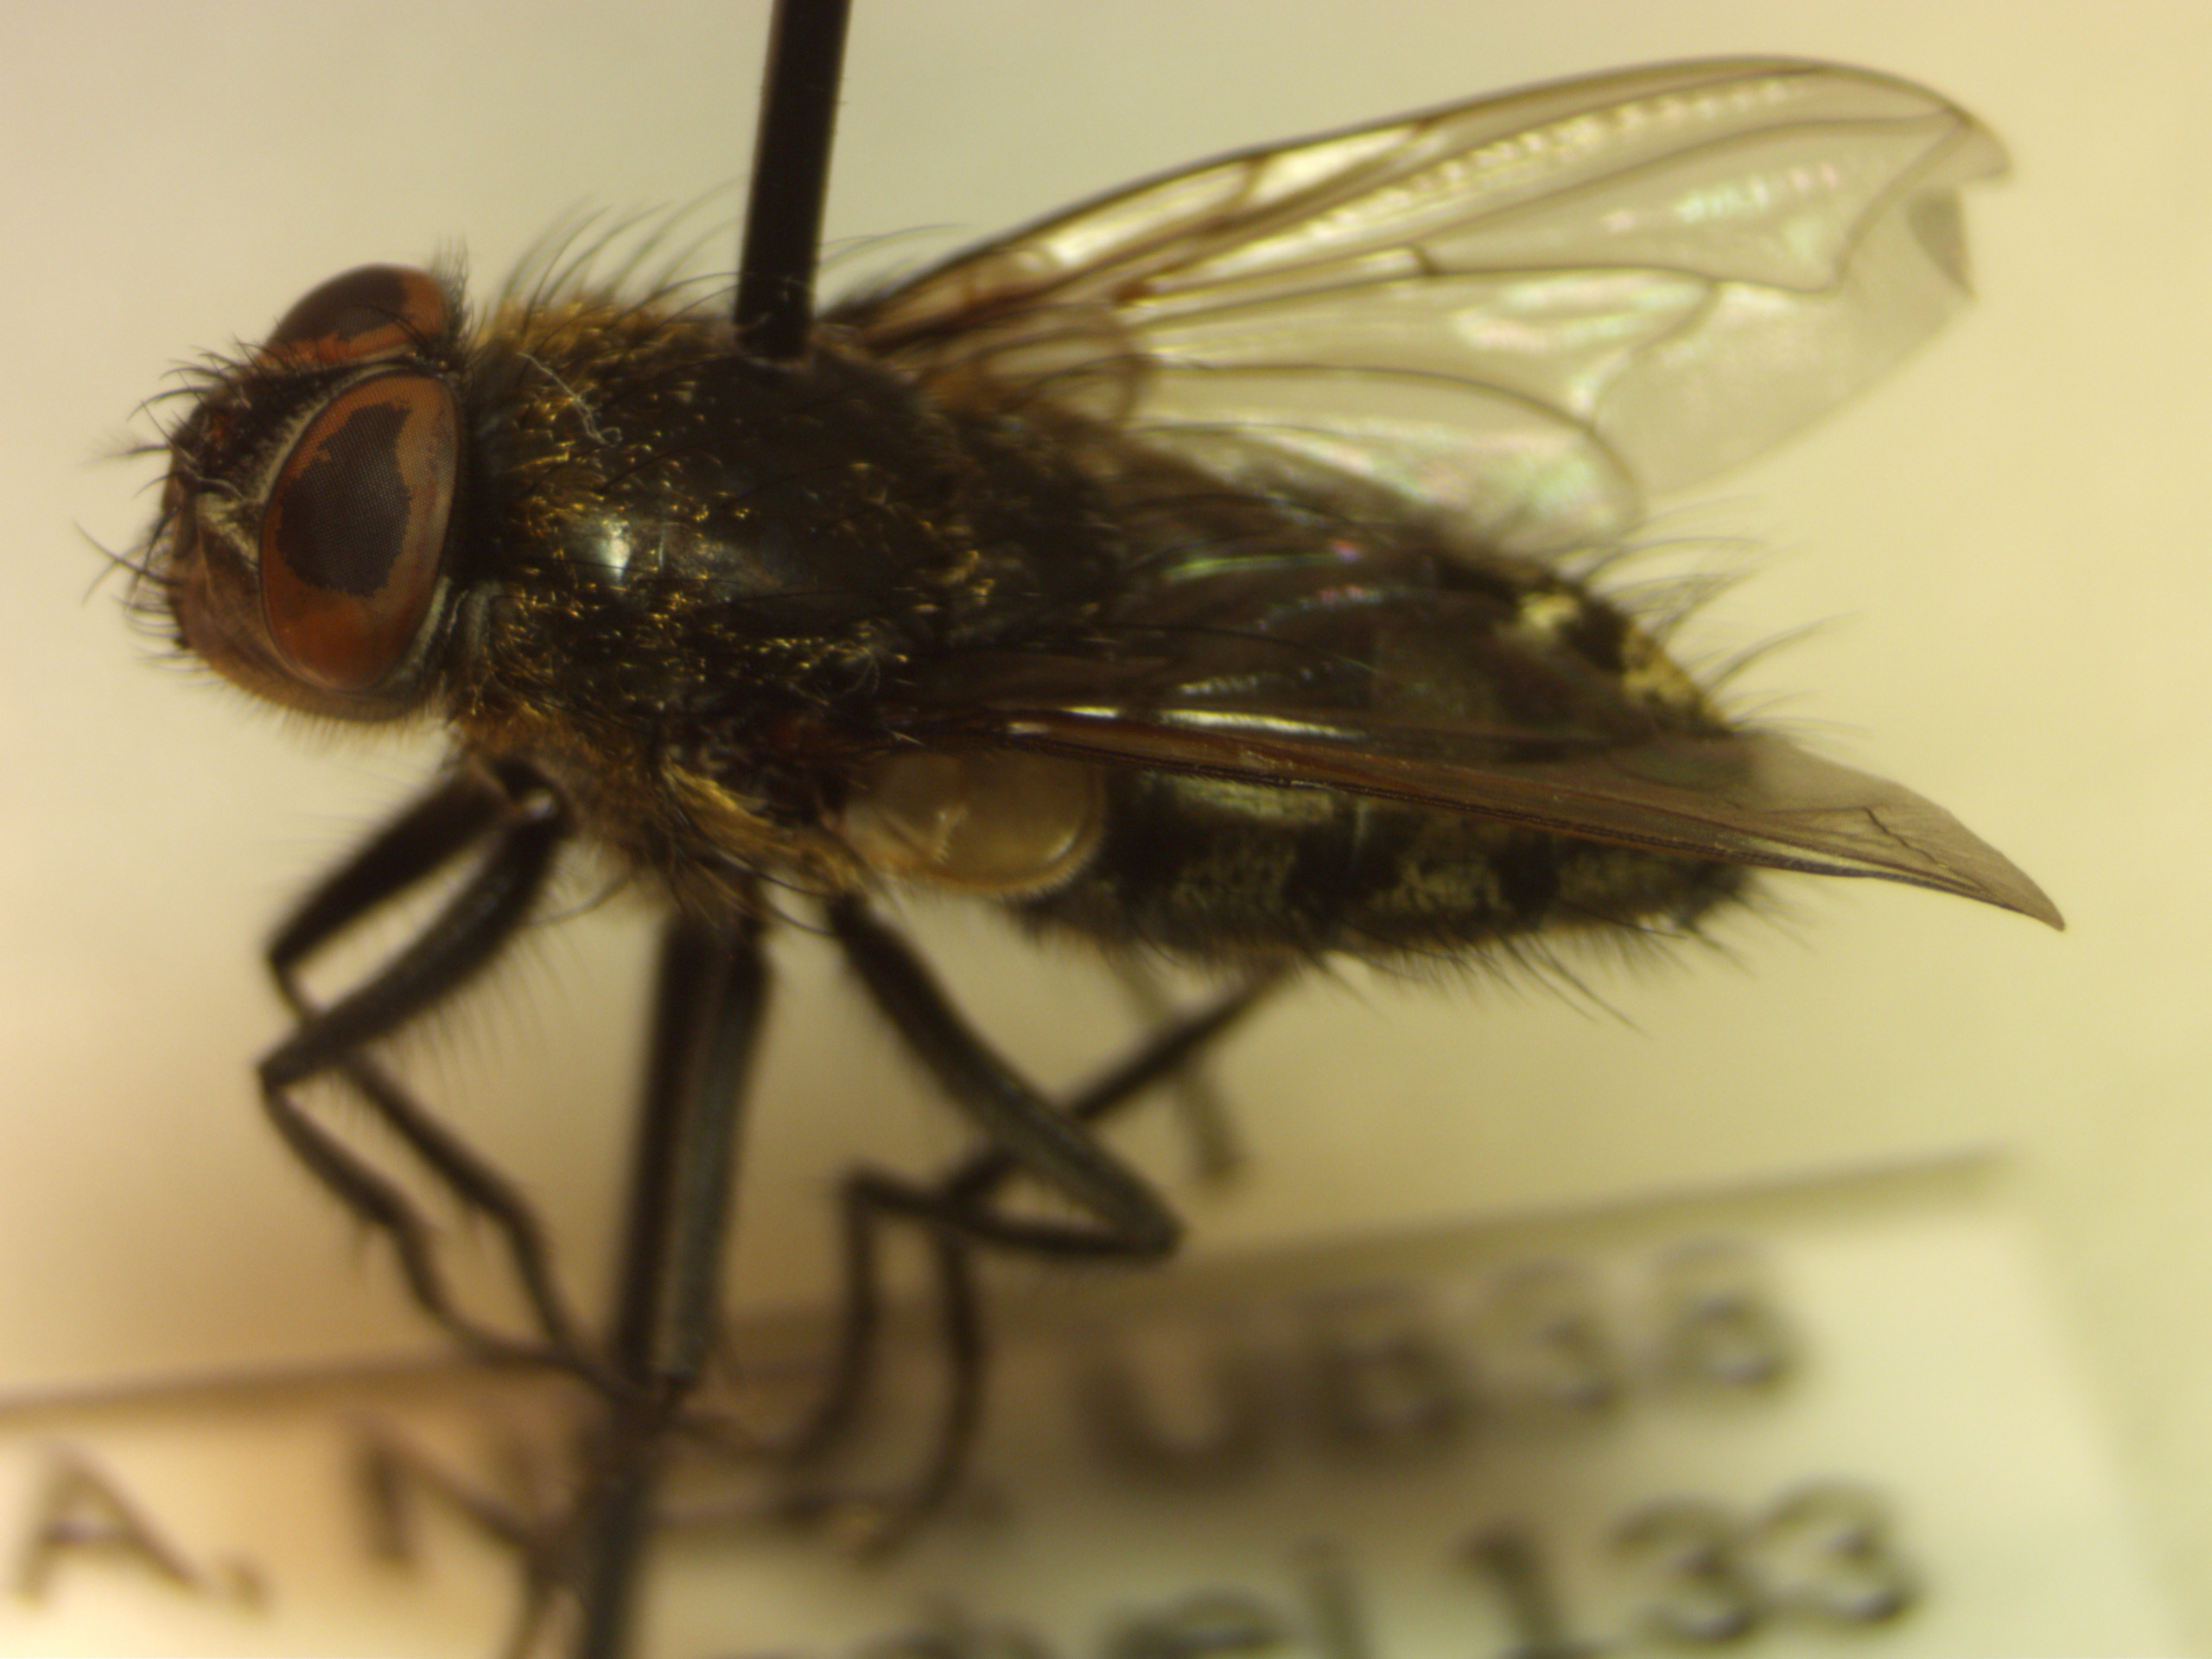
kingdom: Animalia
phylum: Arthropoda
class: Insecta
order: Diptera
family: Polleniidae
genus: Pollenia
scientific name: Pollenia pediculata
